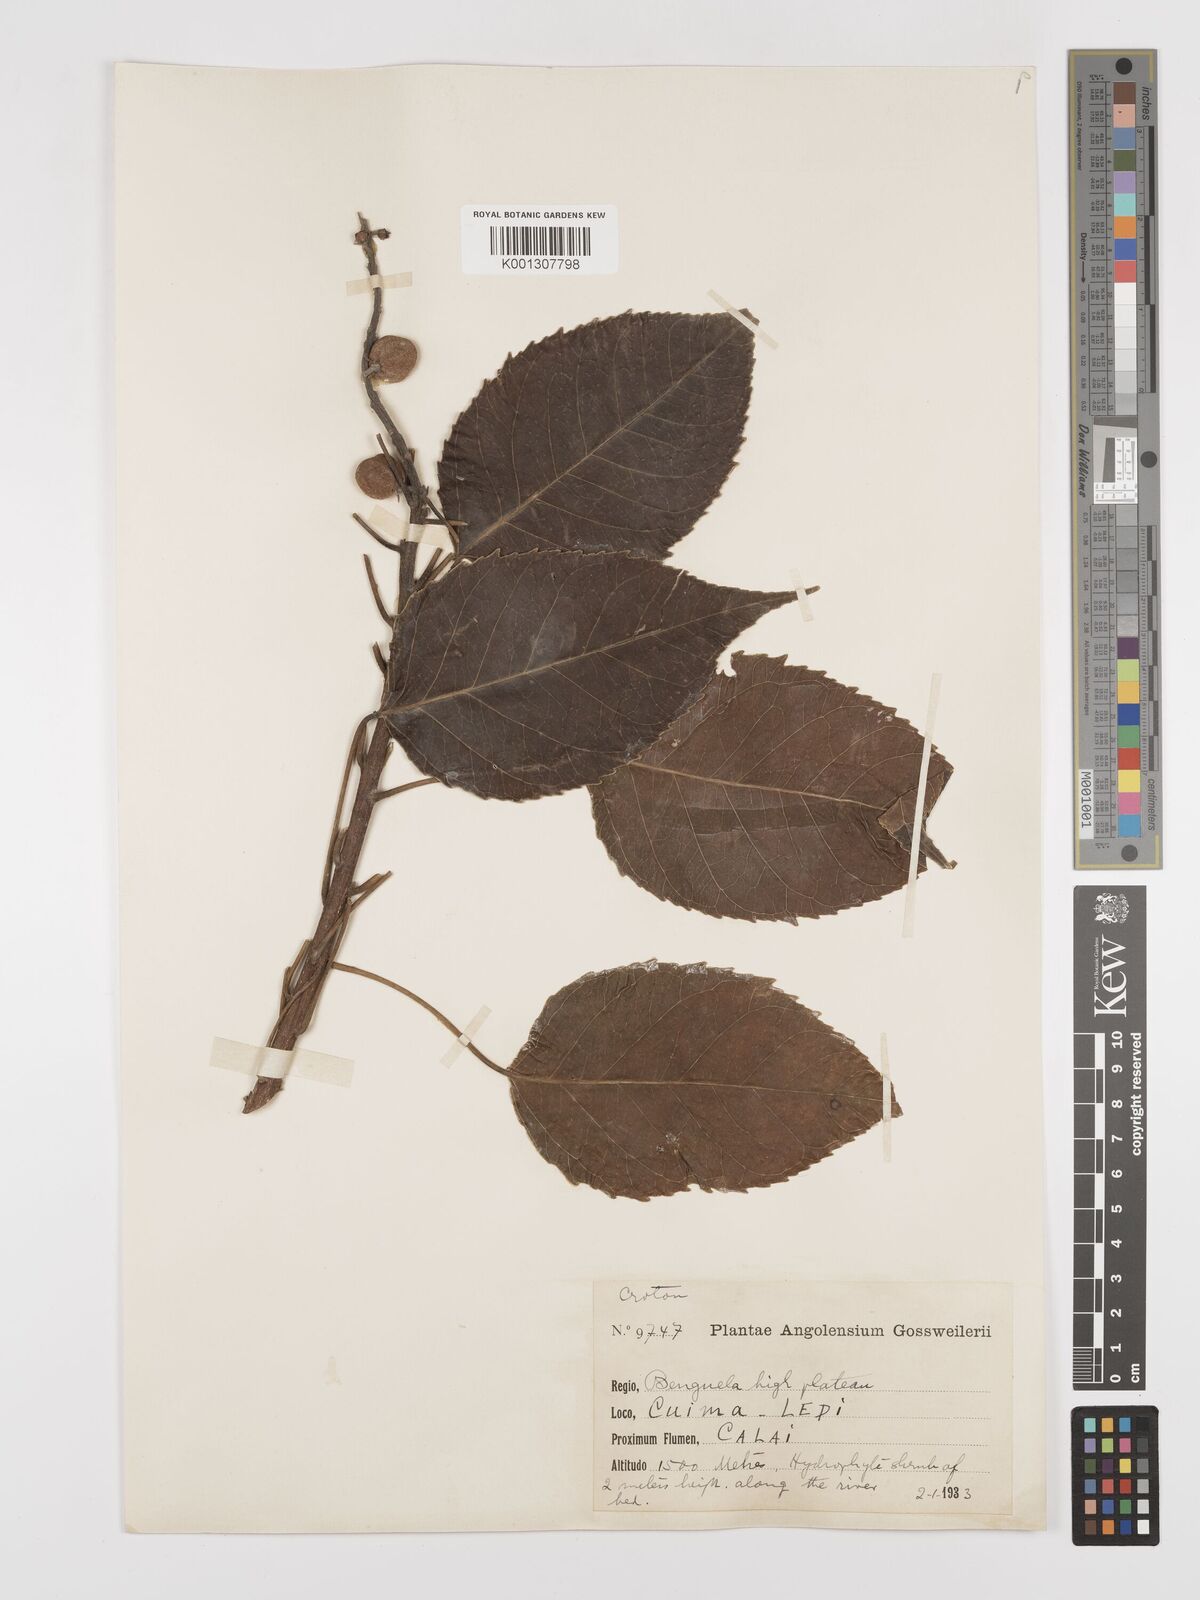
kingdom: Plantae
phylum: Tracheophyta
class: Magnoliopsida
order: Malpighiales
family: Euphorbiaceae
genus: Croton
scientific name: Croton gossweileri
